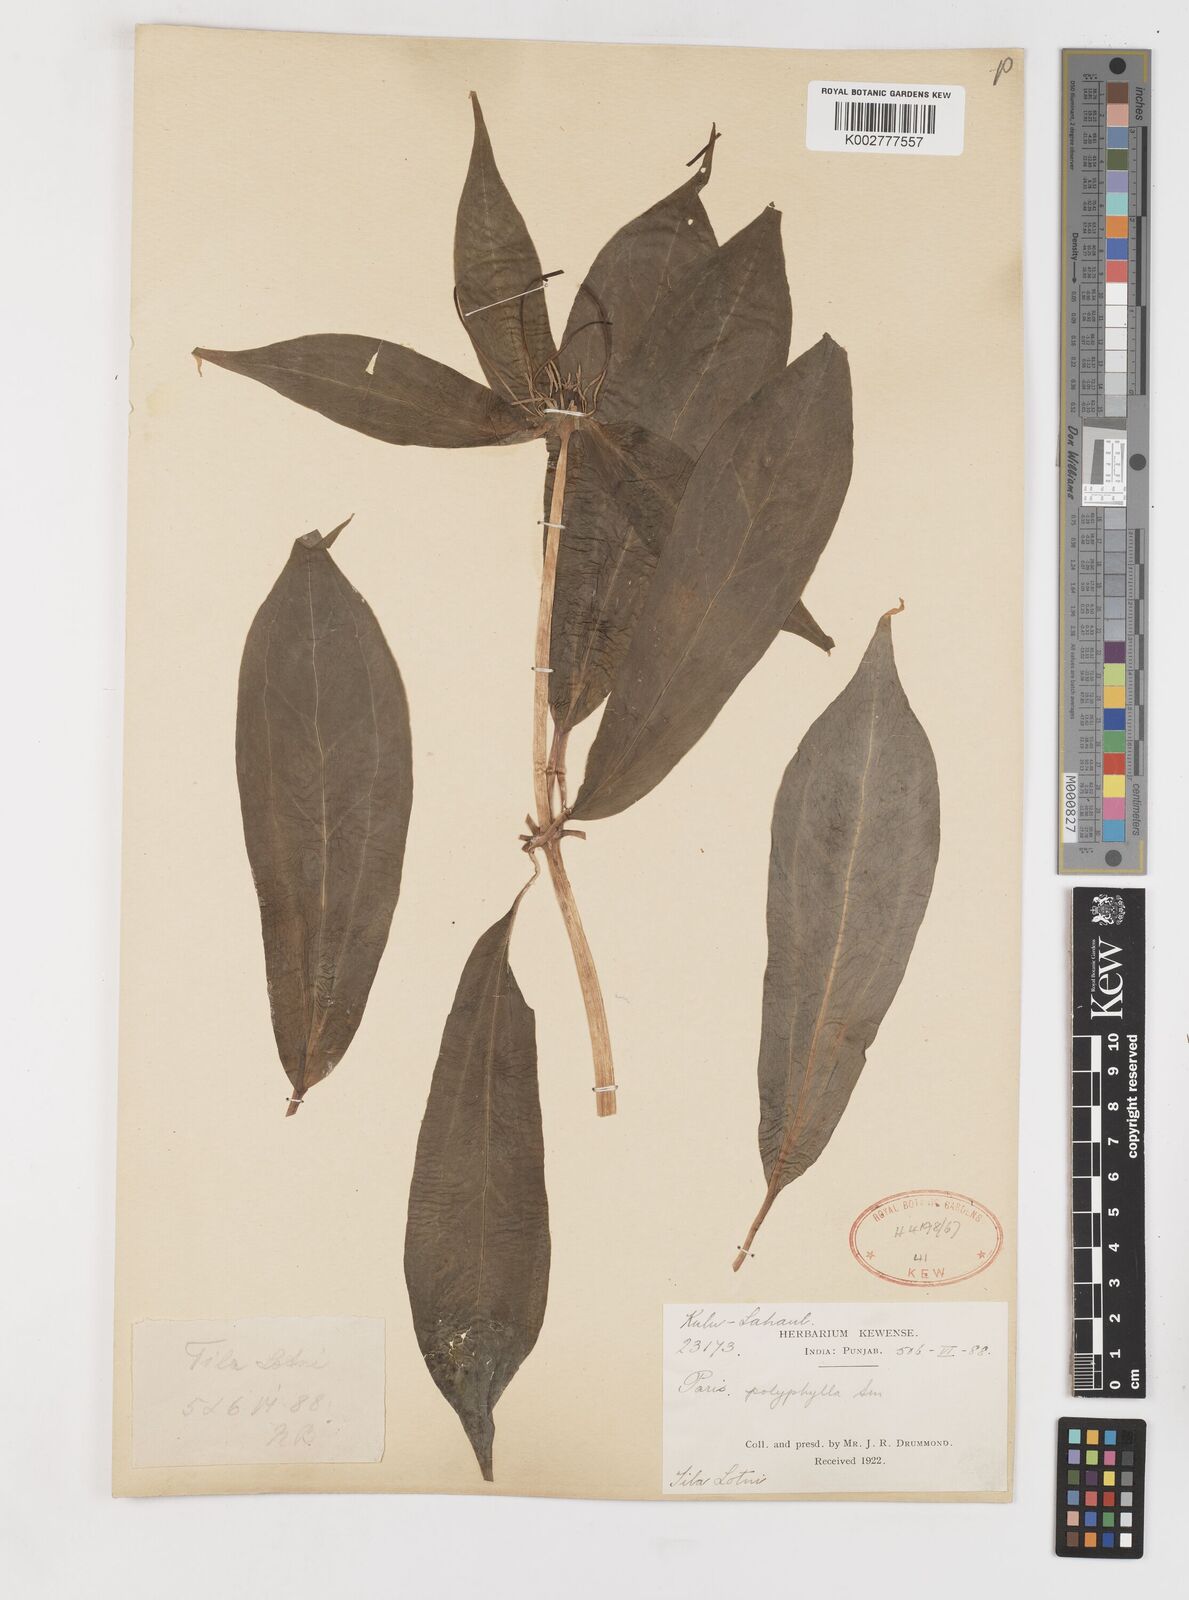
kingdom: Plantae
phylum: Tracheophyta
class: Liliopsida
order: Liliales
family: Melanthiaceae
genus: Paris
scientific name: Paris polyphylla
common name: Love apple
